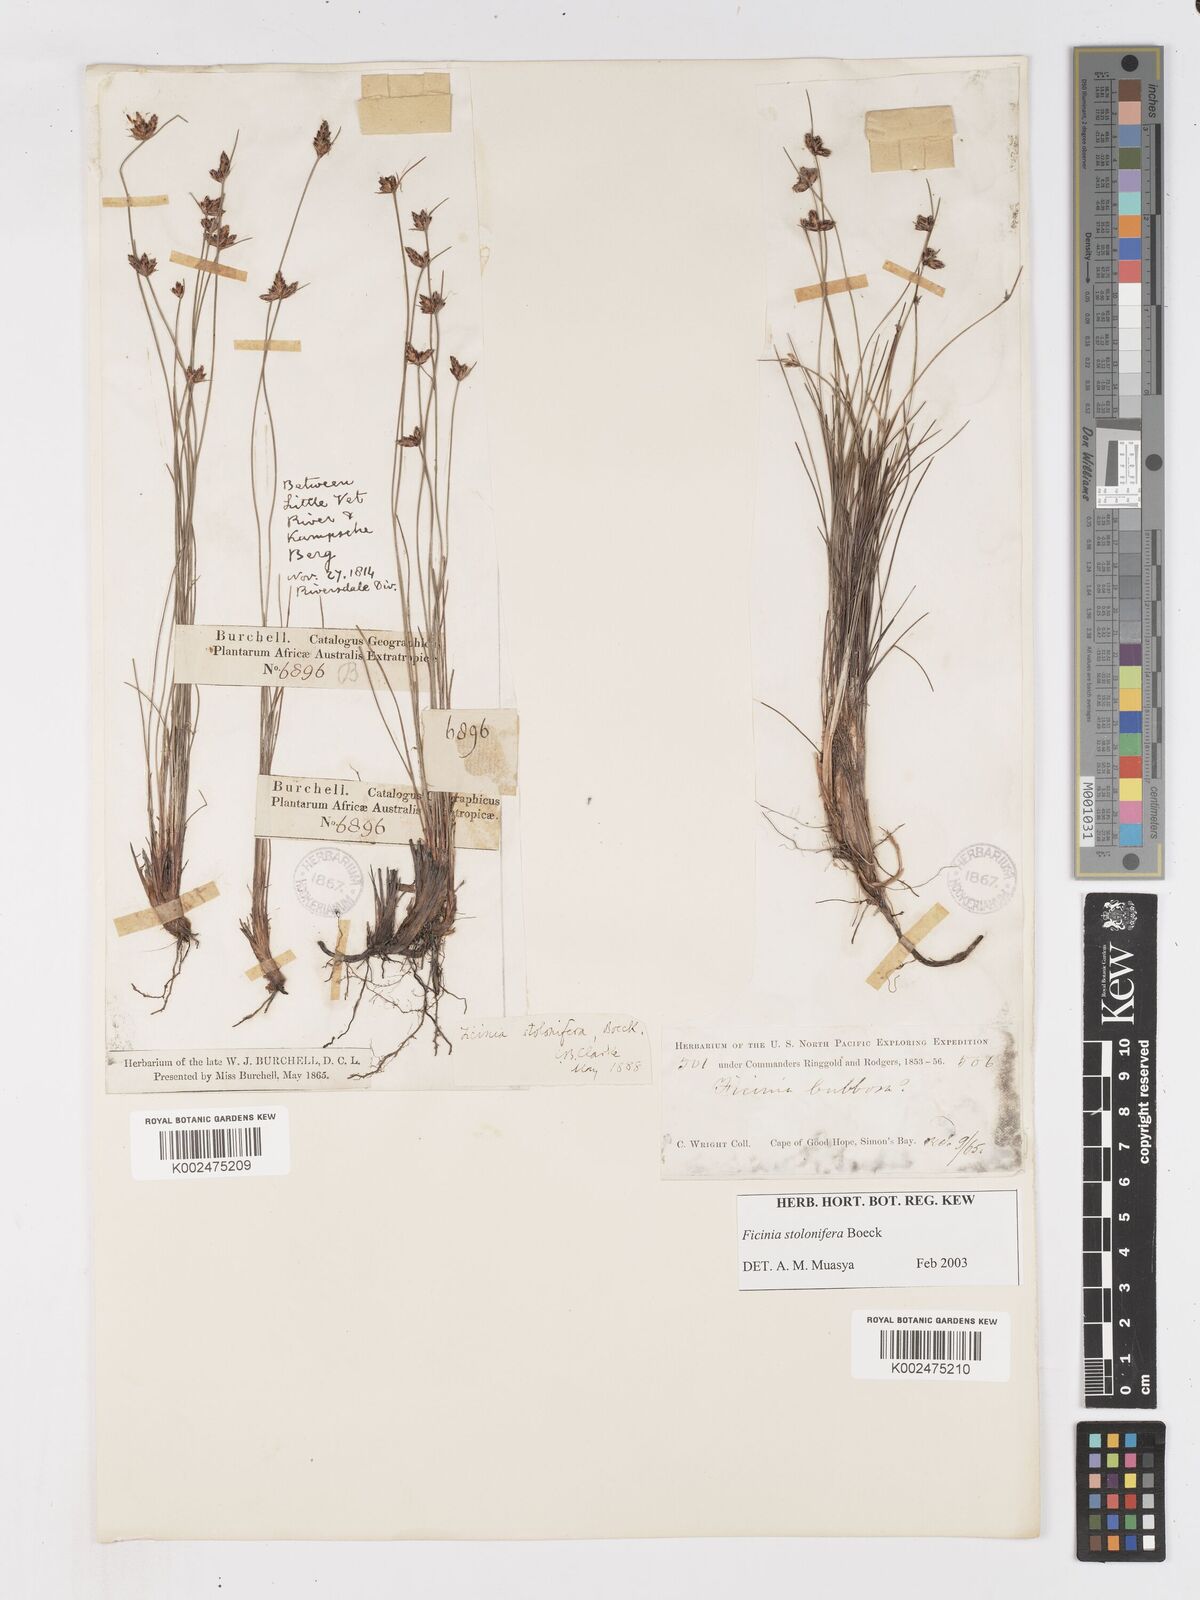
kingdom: Plantae
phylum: Tracheophyta
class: Liliopsida
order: Poales
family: Cyperaceae
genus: Ficinia
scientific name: Ficinia stolonifera
